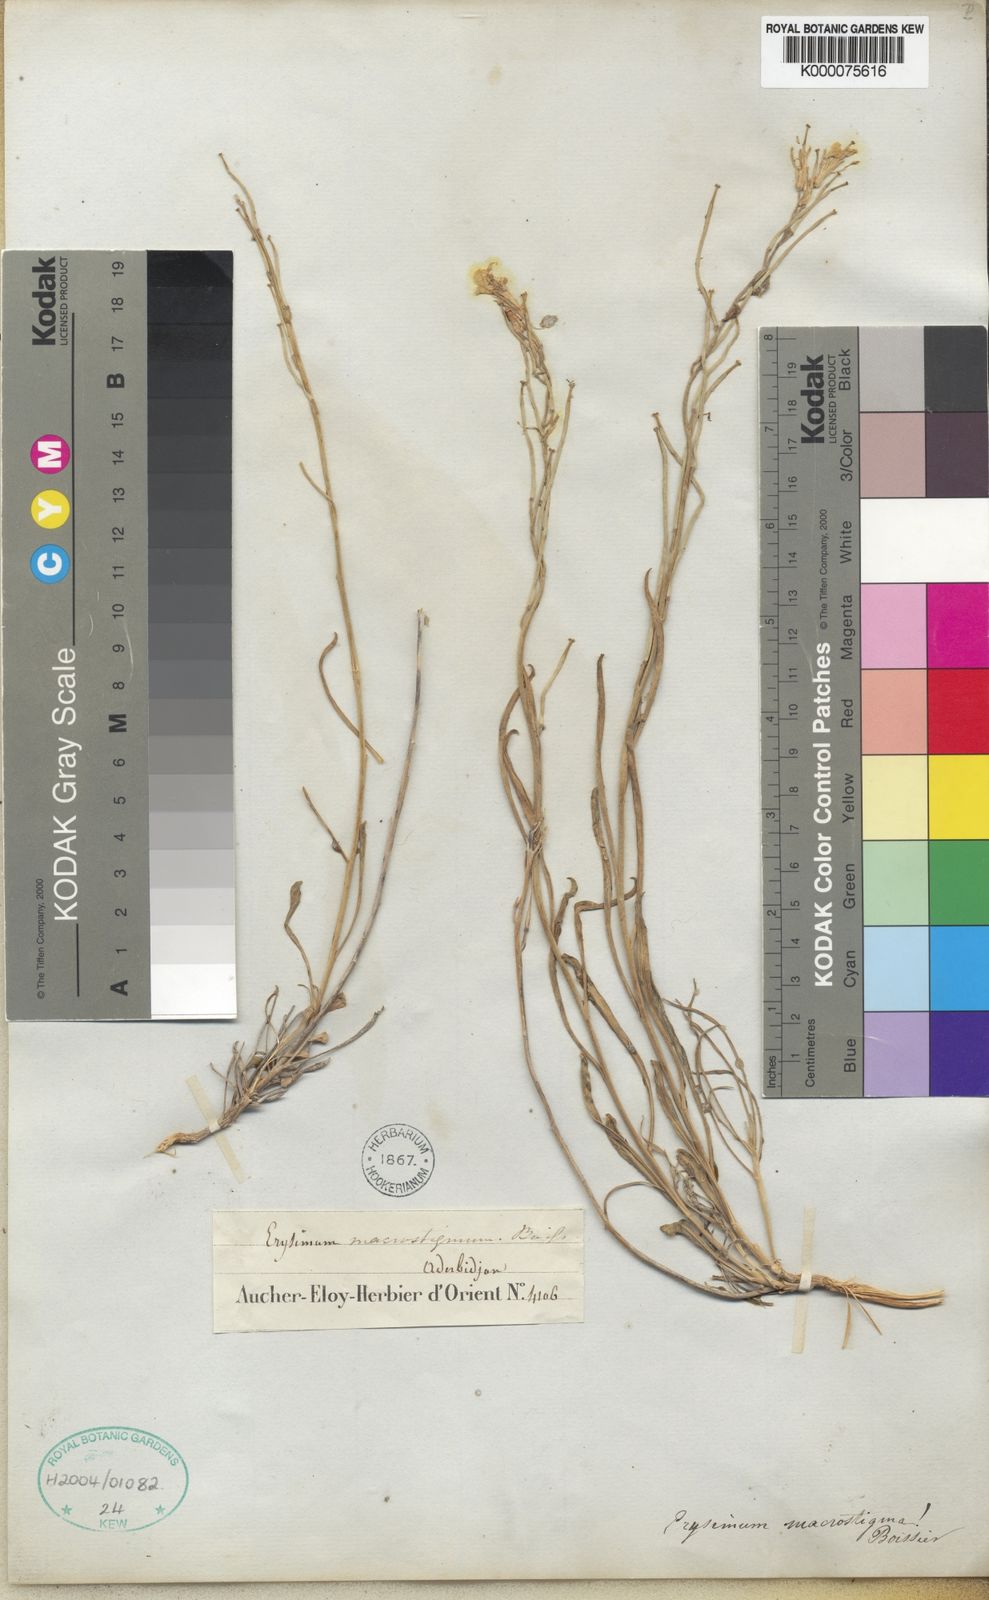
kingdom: Plantae
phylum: Tracheophyta
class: Magnoliopsida
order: Brassicales
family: Brassicaceae
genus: Erysimum
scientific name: Erysimum macrostigma
